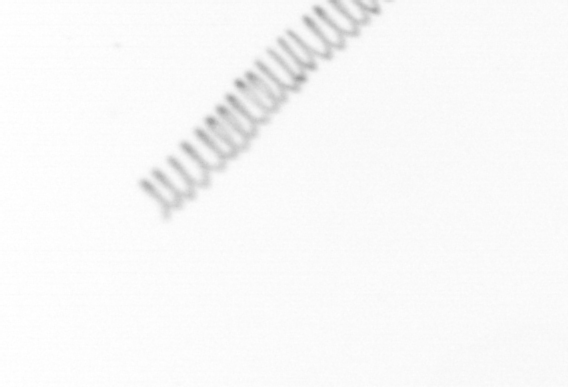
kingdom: Chromista
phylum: Ochrophyta
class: Bacillariophyceae
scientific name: Bacillariophyceae
